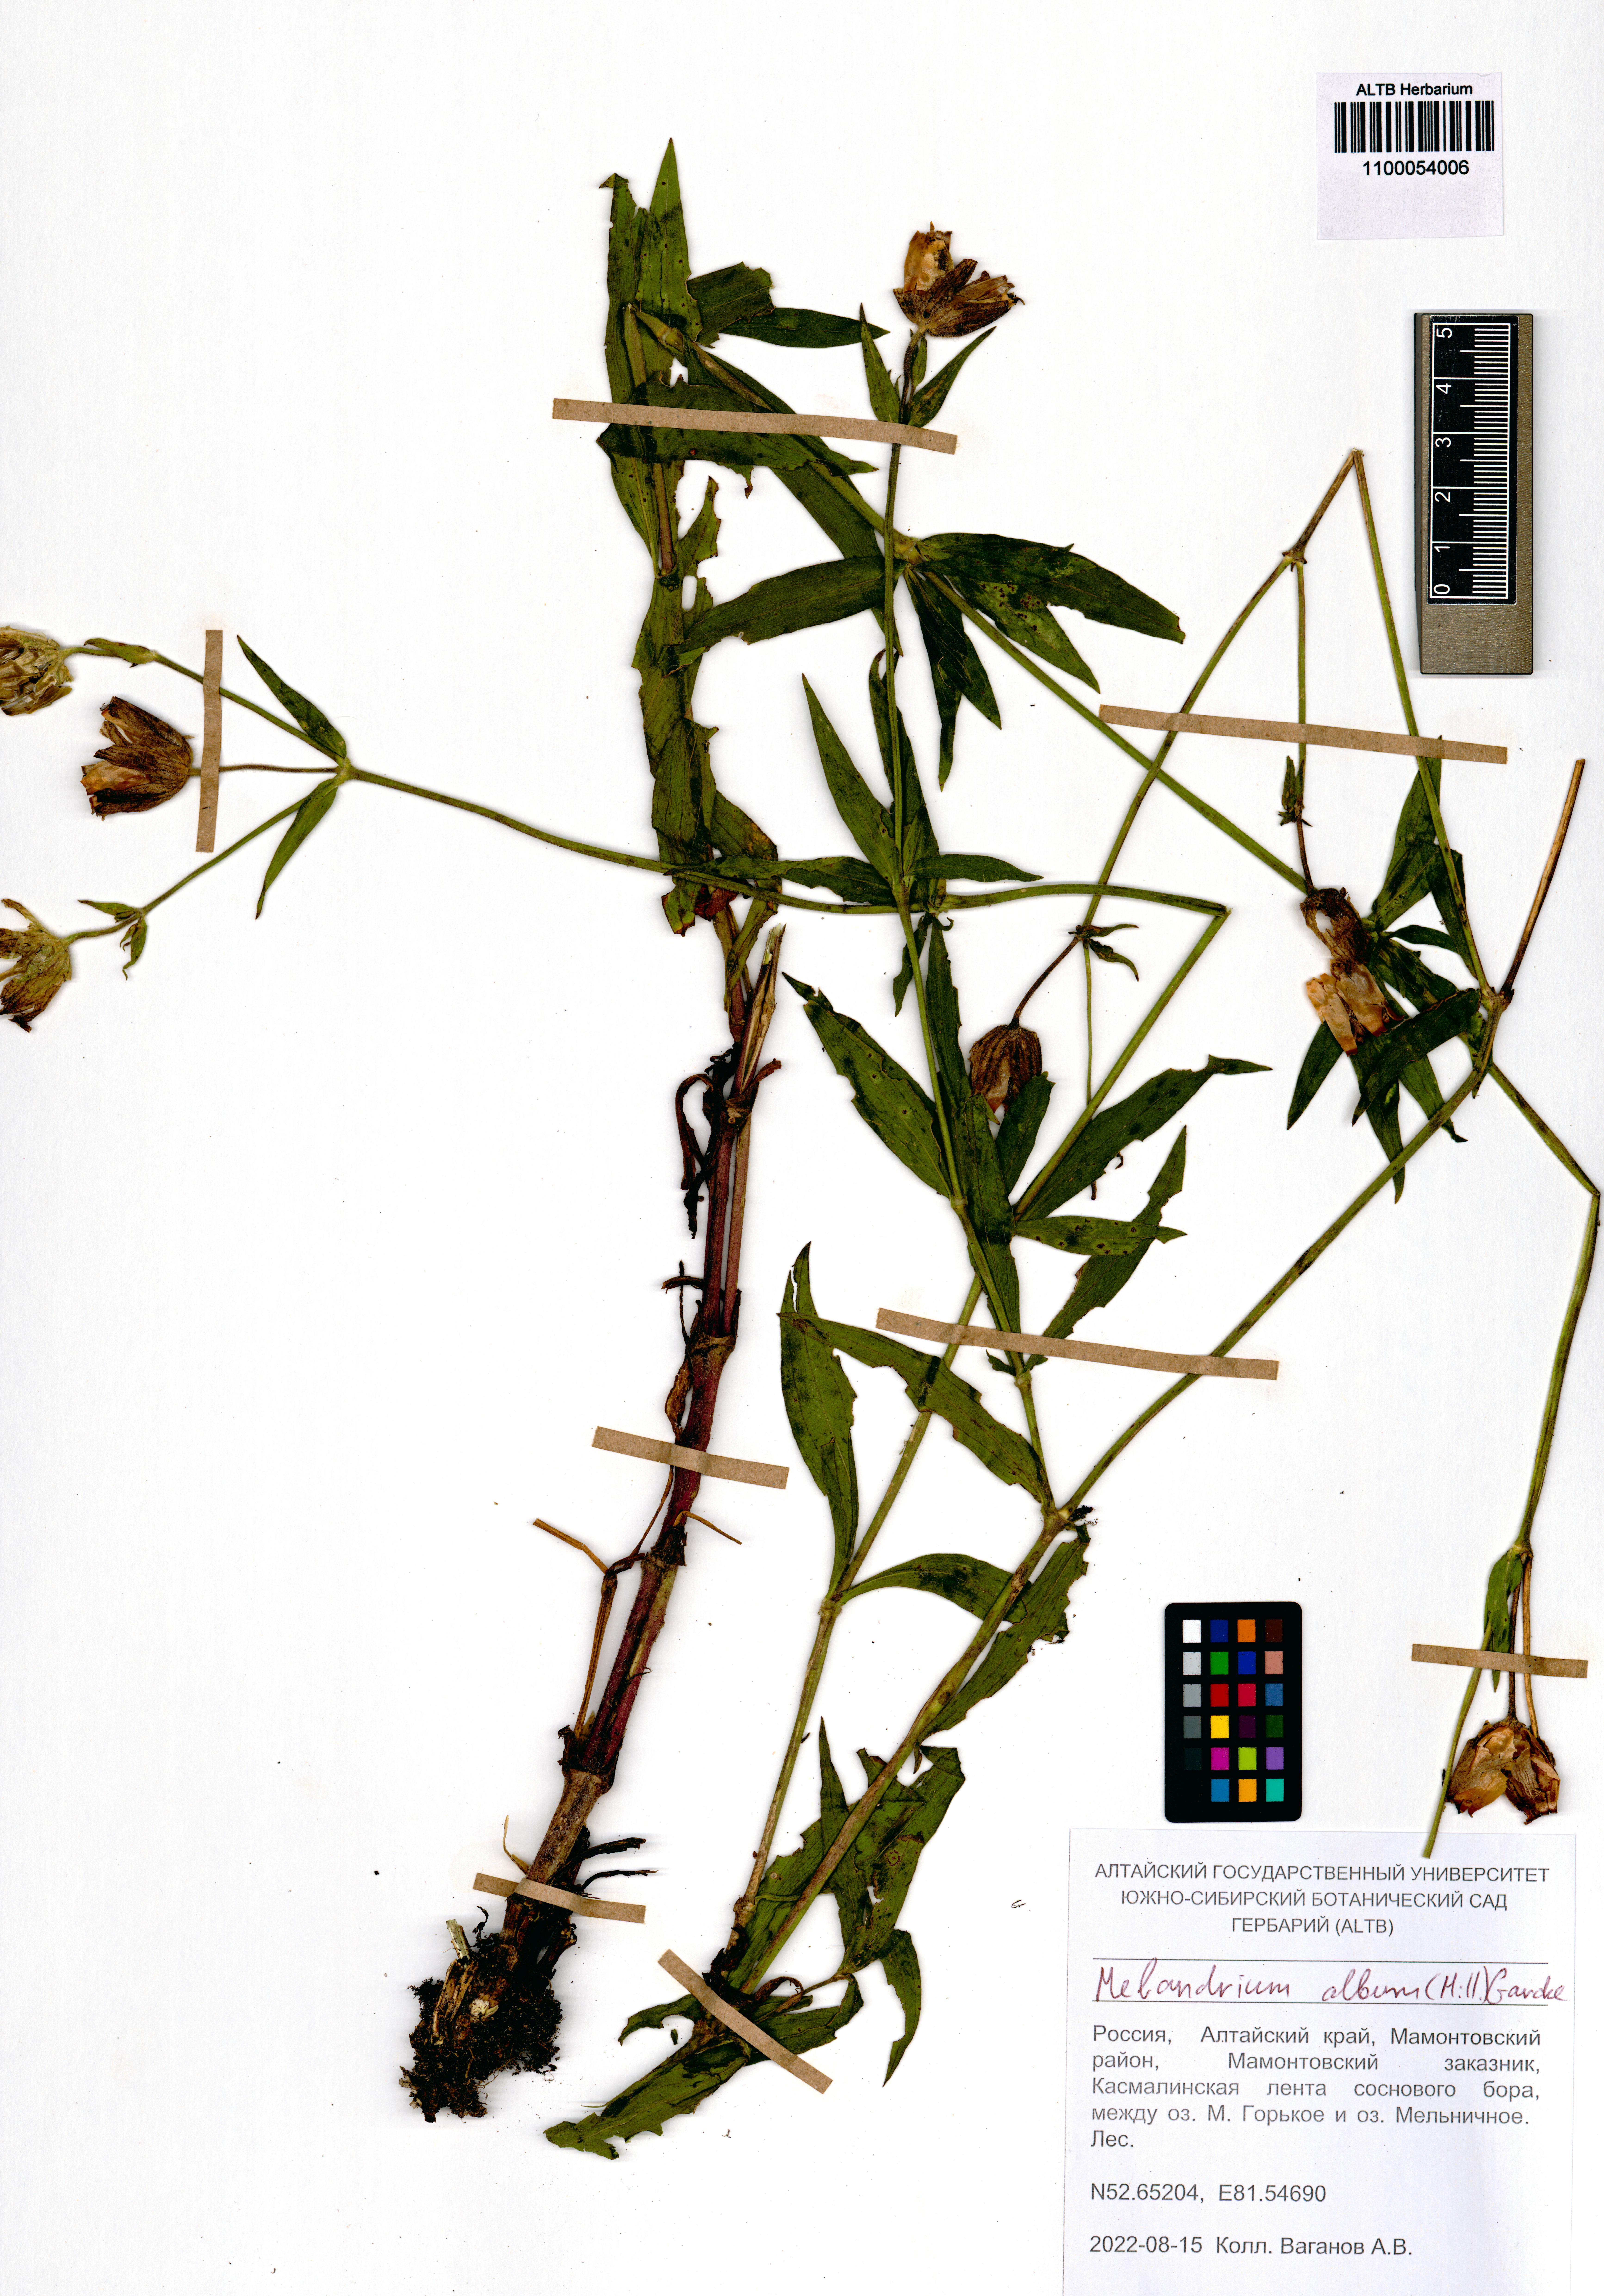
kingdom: Plantae
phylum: Tracheophyta
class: Magnoliopsida
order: Caryophyllales
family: Caryophyllaceae
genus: Silene
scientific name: Silene latifolia
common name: White campion
